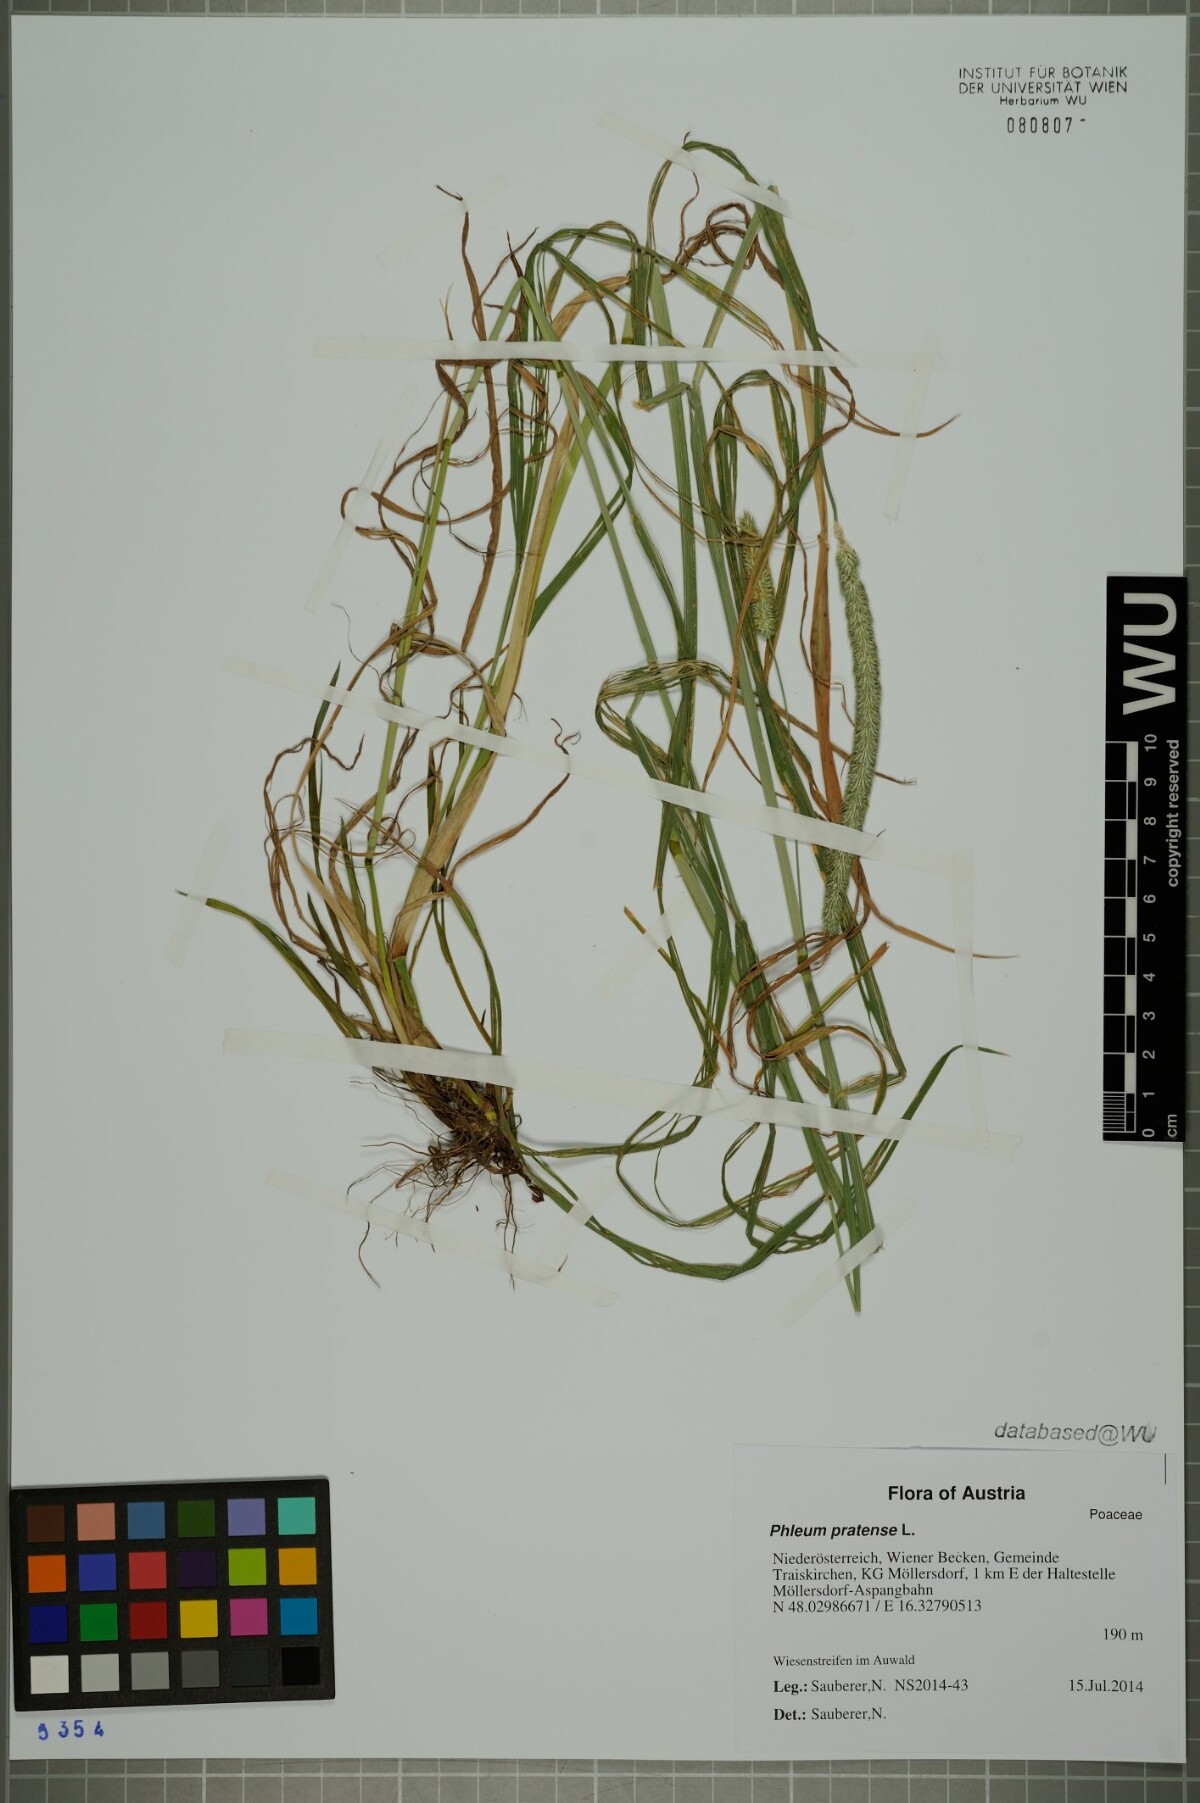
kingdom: Plantae
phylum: Tracheophyta
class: Liliopsida
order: Poales
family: Poaceae
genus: Phleum
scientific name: Phleum pratense
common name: Timothy grass
